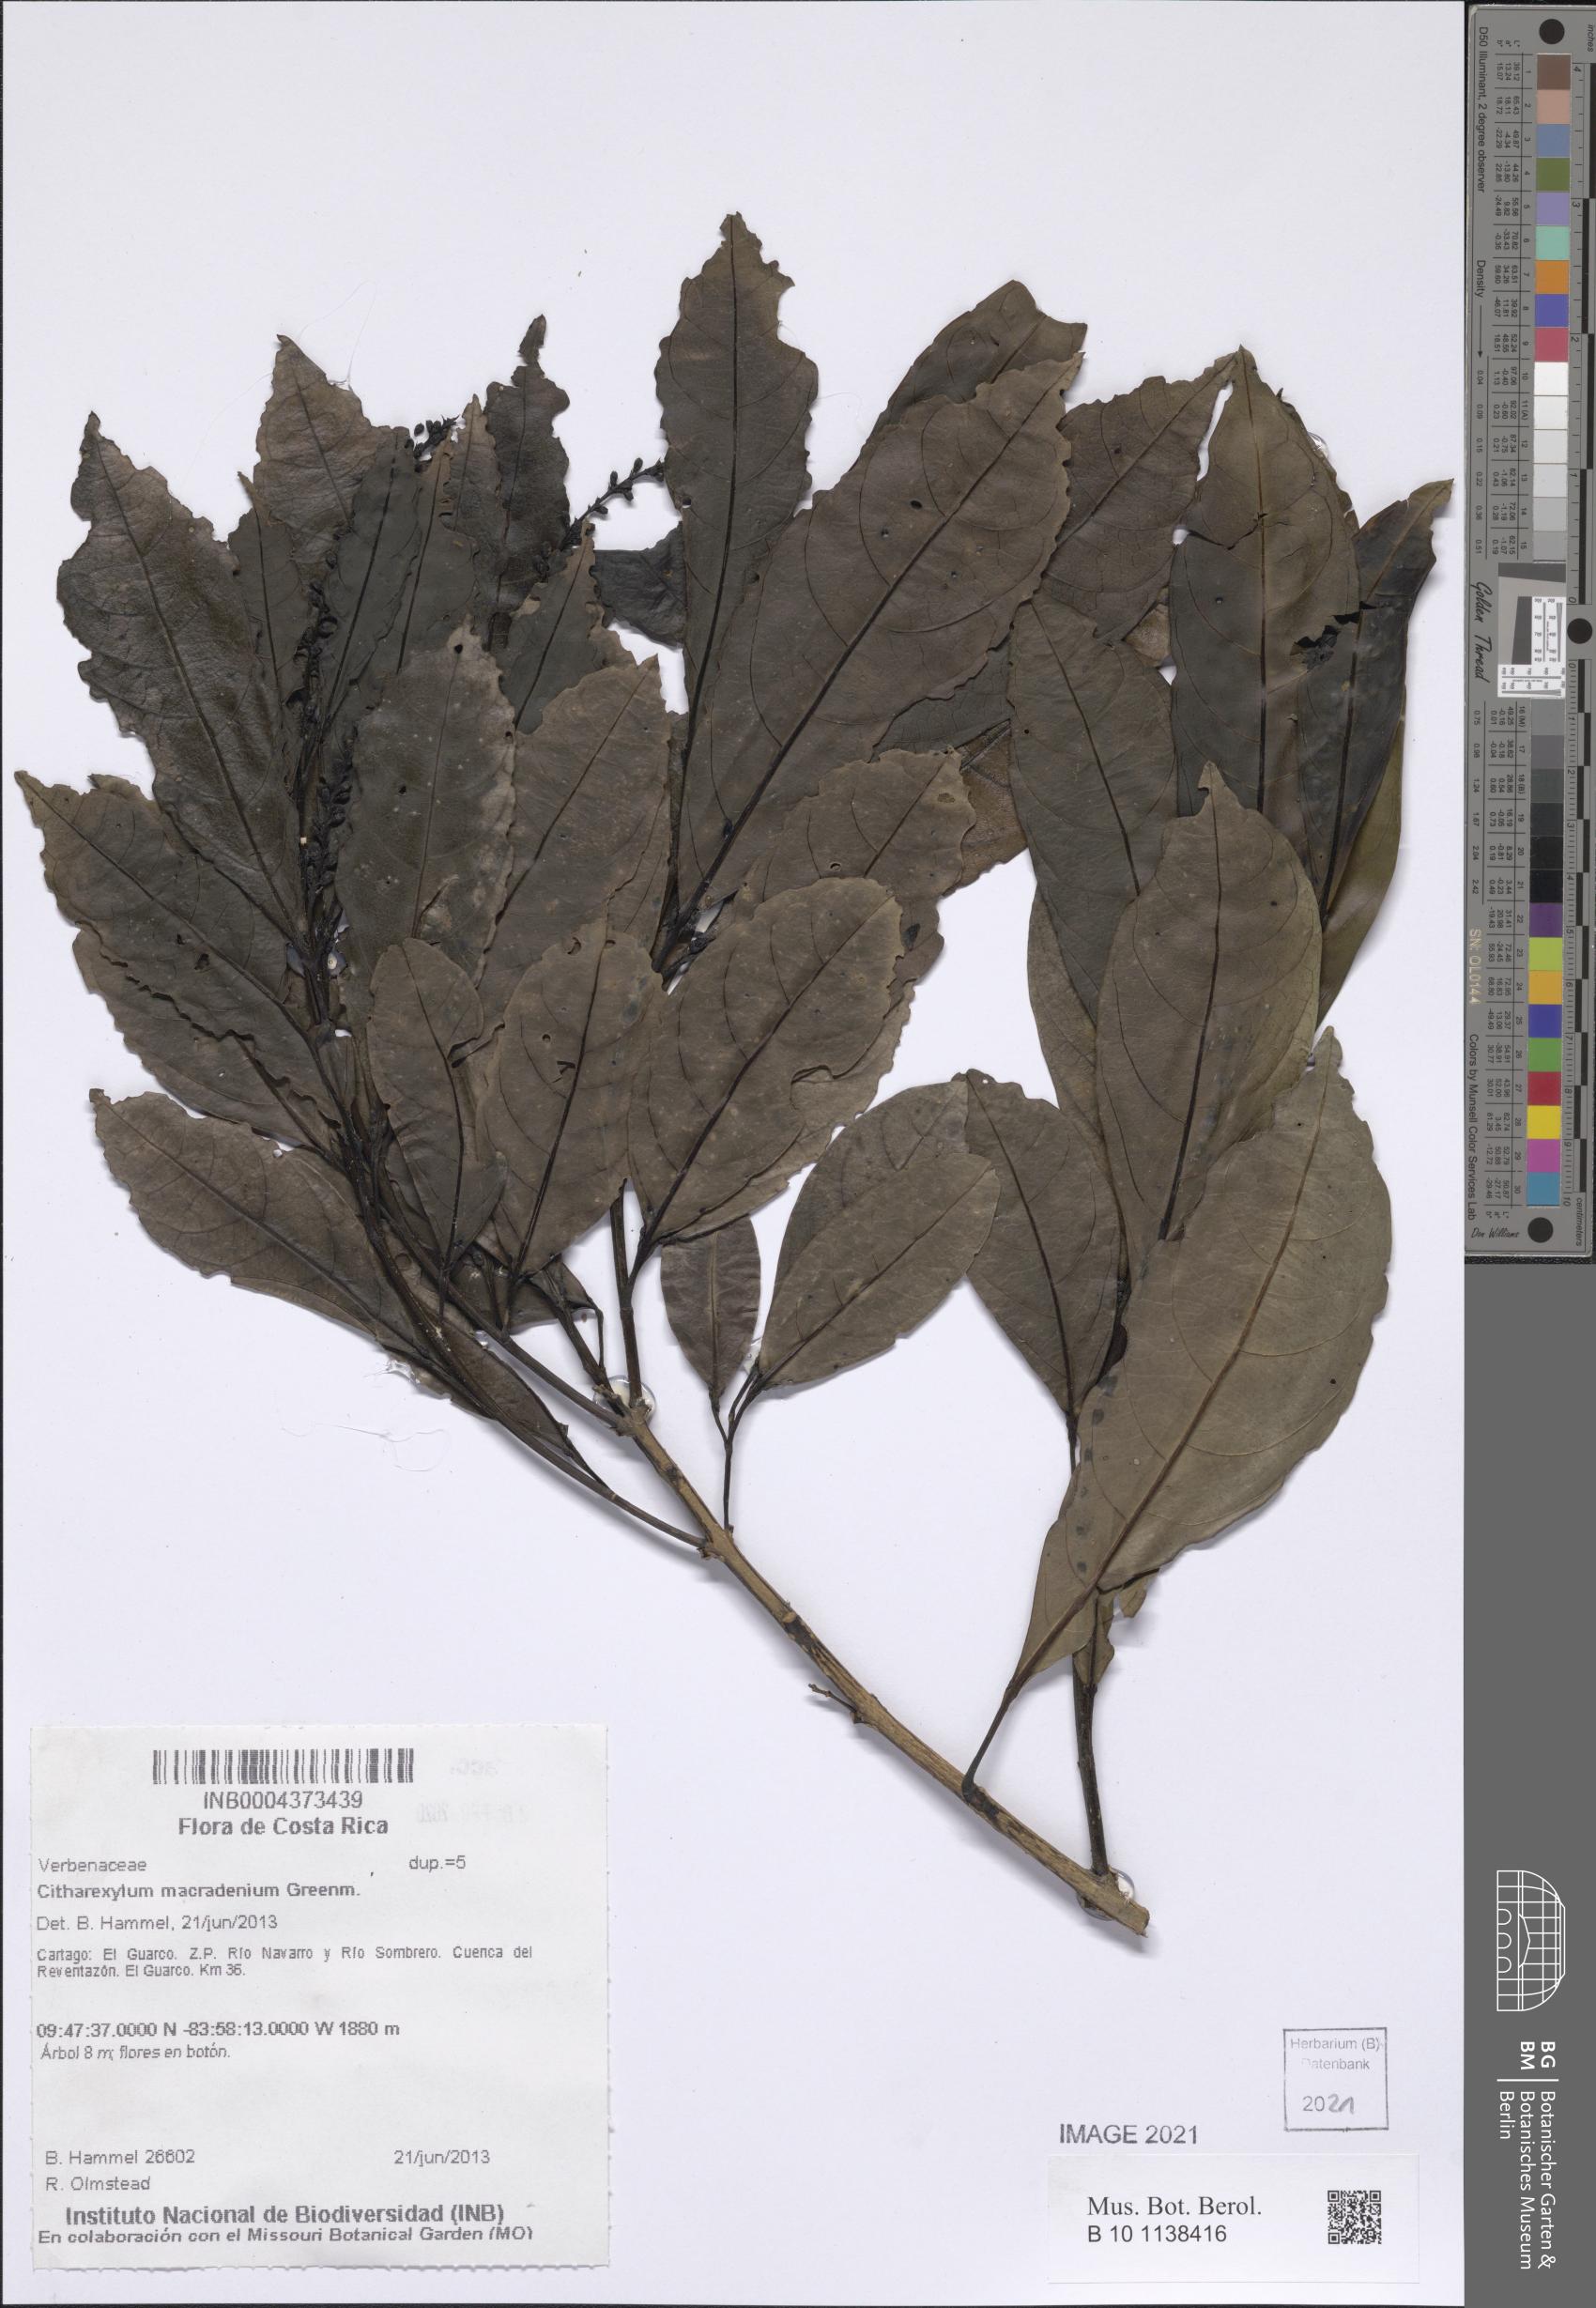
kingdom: Plantae
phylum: Tracheophyta
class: Magnoliopsida
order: Lamiales
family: Verbenaceae
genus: Citharexylum
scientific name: Citharexylum macradenium
